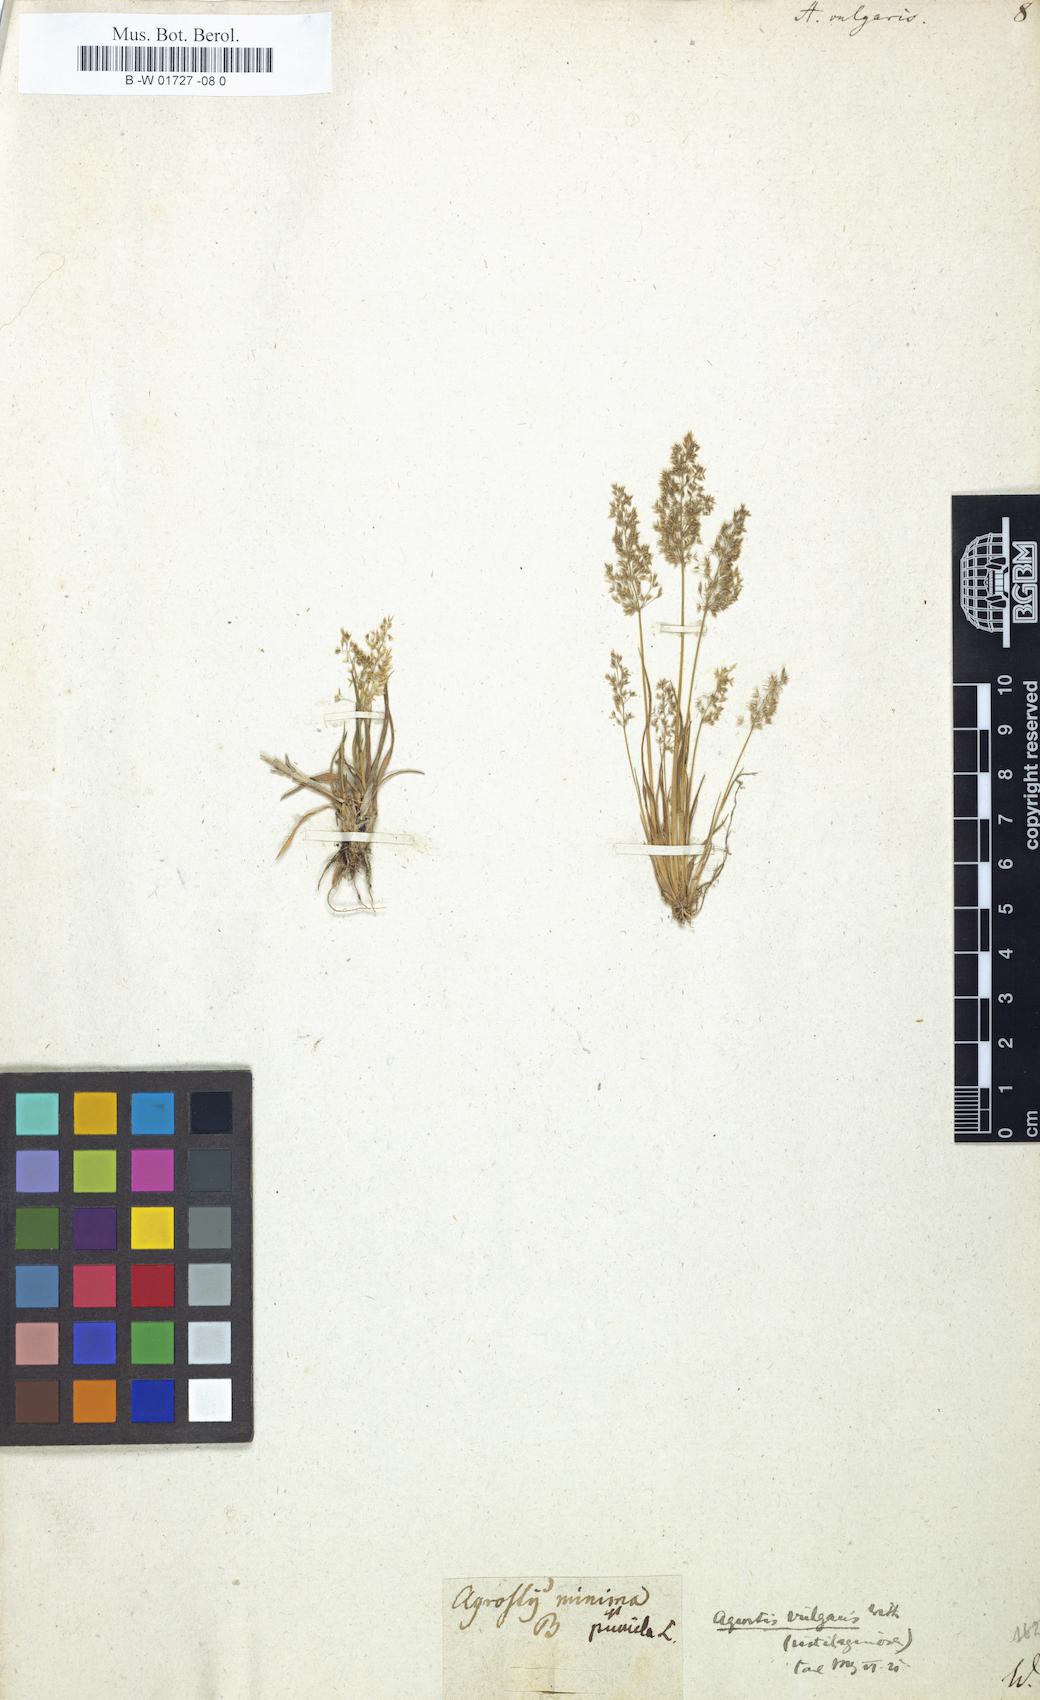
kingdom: Plantae
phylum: Tracheophyta
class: Liliopsida
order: Poales
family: Poaceae
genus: Agrostis
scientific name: Agrostis capillaris
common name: Colonial bentgrass
